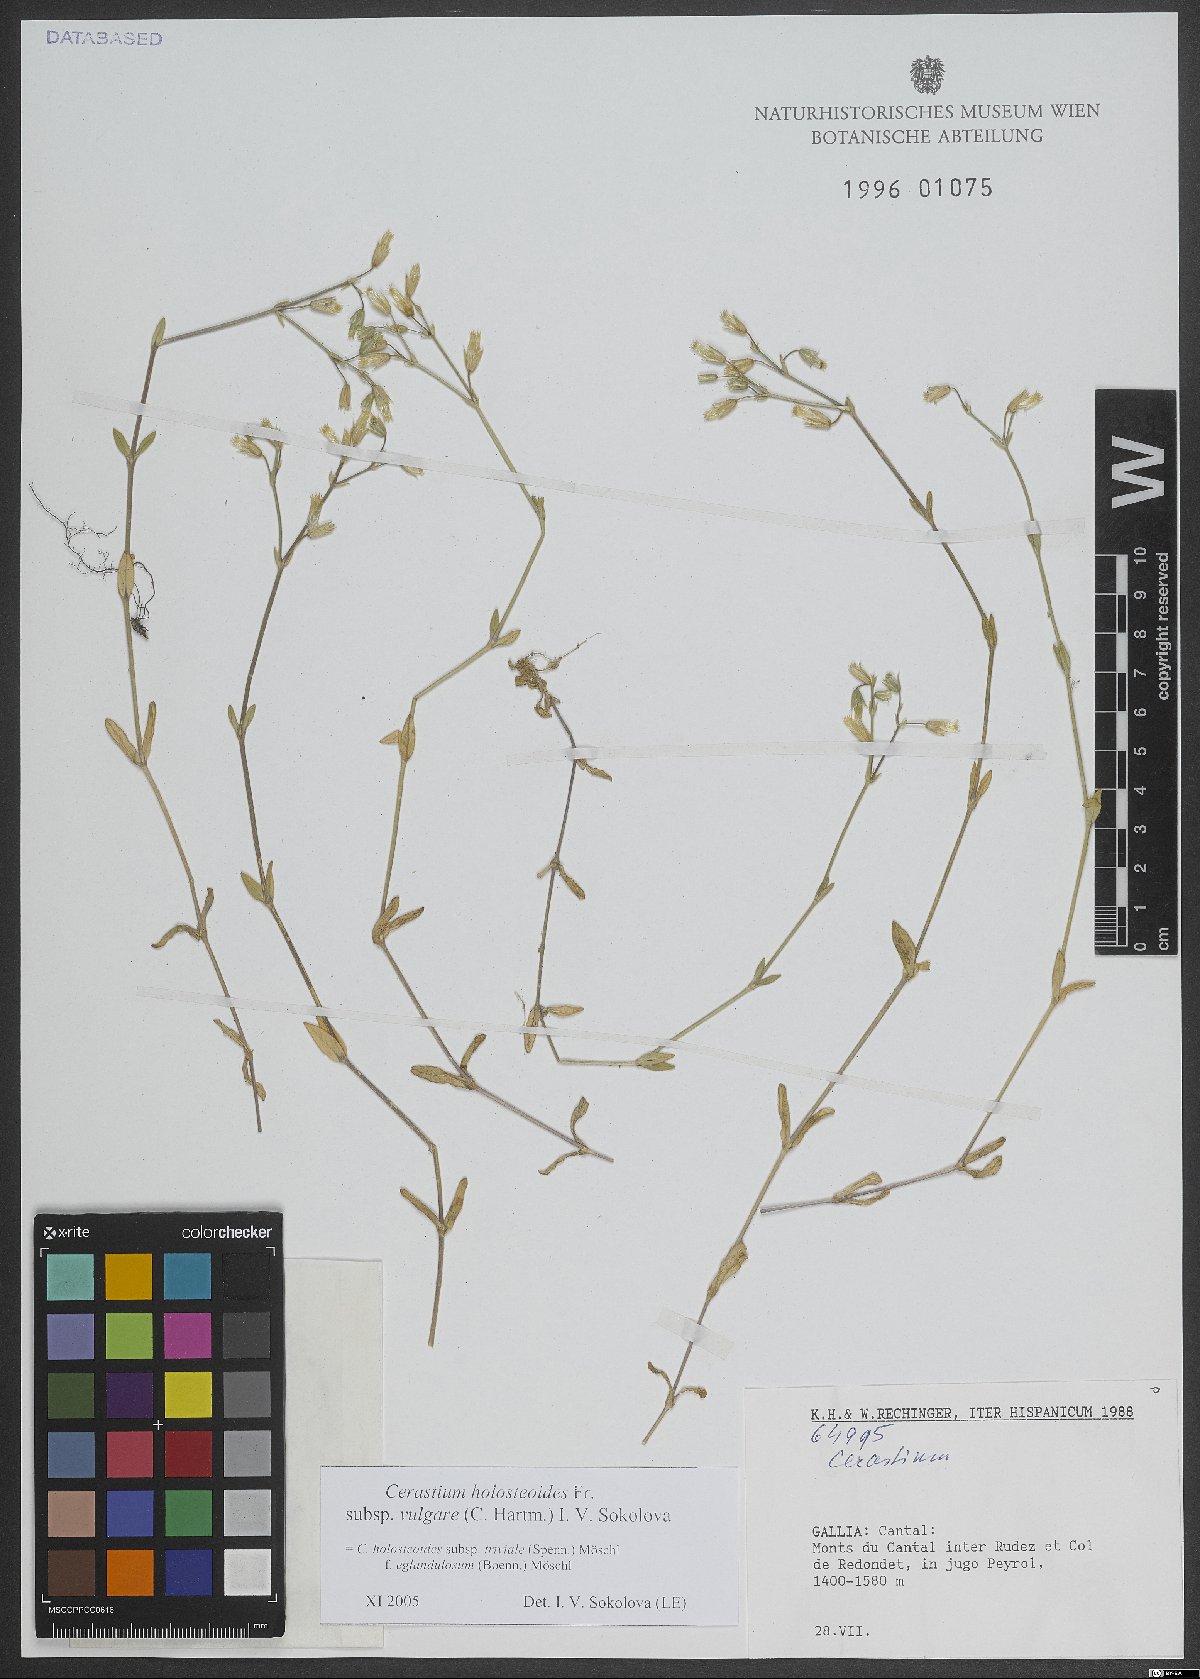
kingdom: Plantae
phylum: Tracheophyta
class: Magnoliopsida
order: Caryophyllales
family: Caryophyllaceae
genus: Cerastium
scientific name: Cerastium holosteoides
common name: Big chickweed
